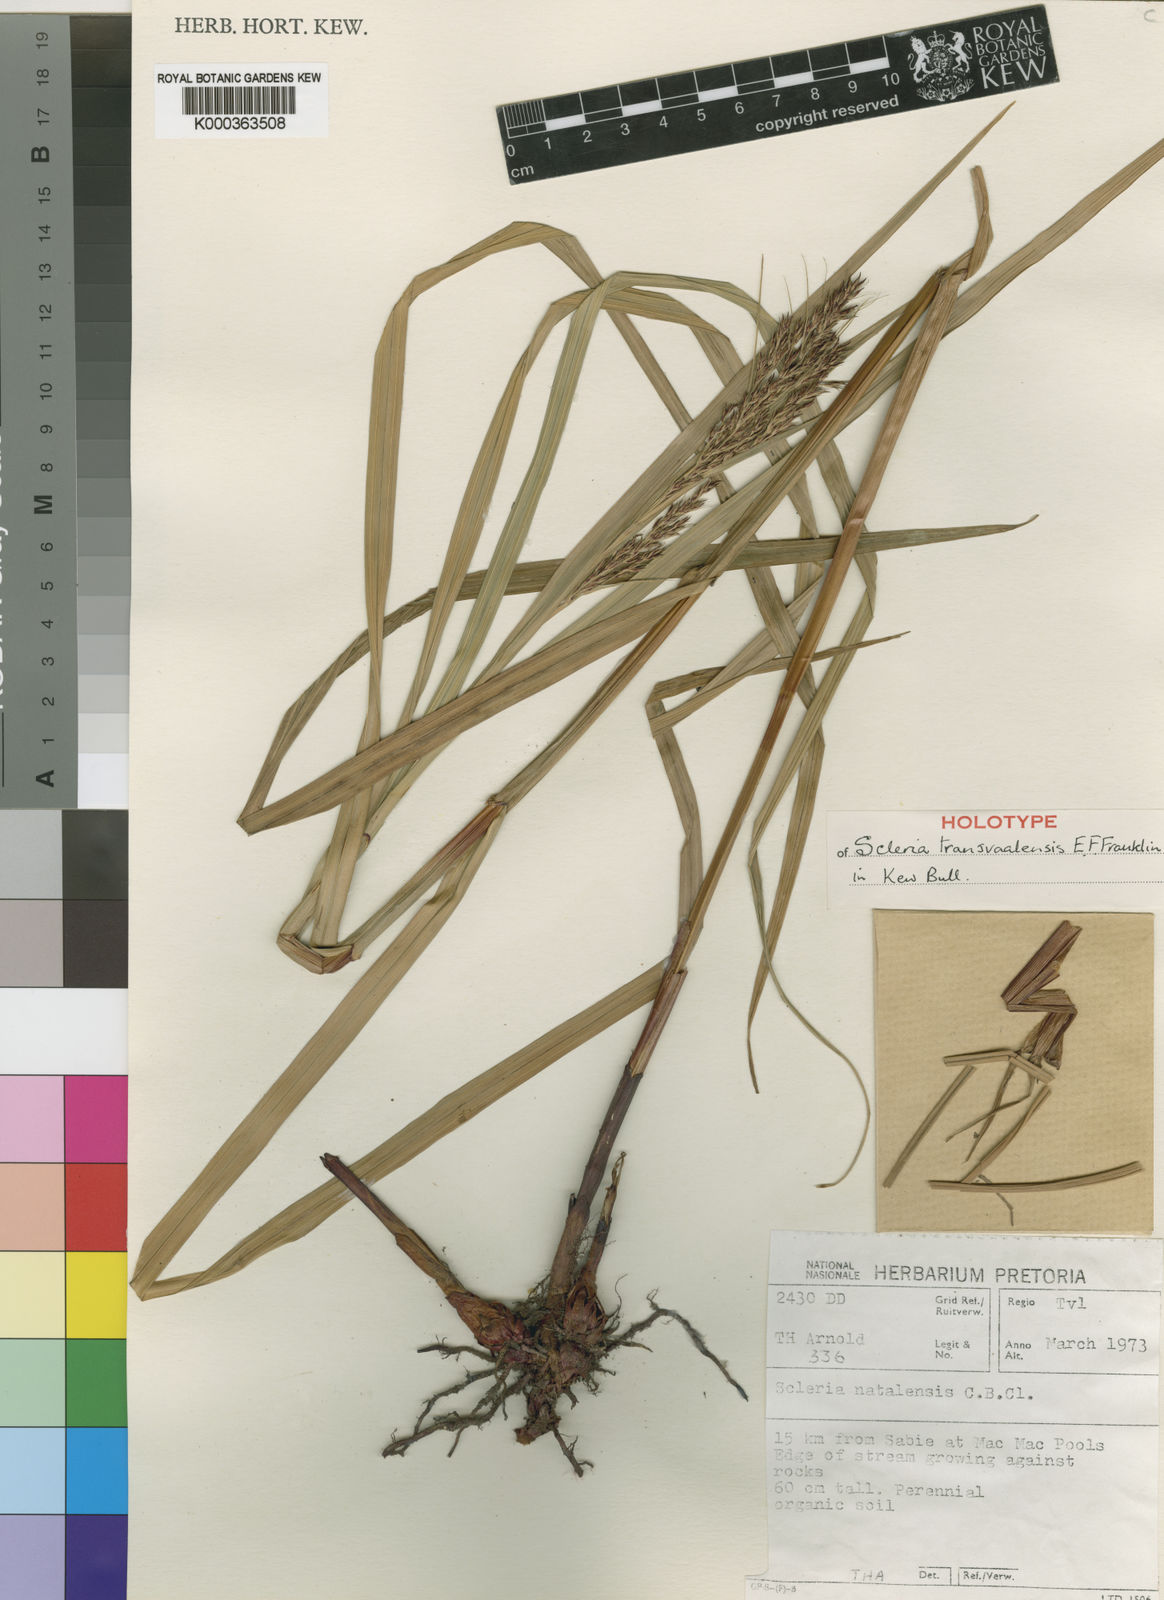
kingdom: Plantae
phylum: Tracheophyta
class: Liliopsida
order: Poales
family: Cyperaceae
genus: Scleria
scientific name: Scleria transvaalensis
